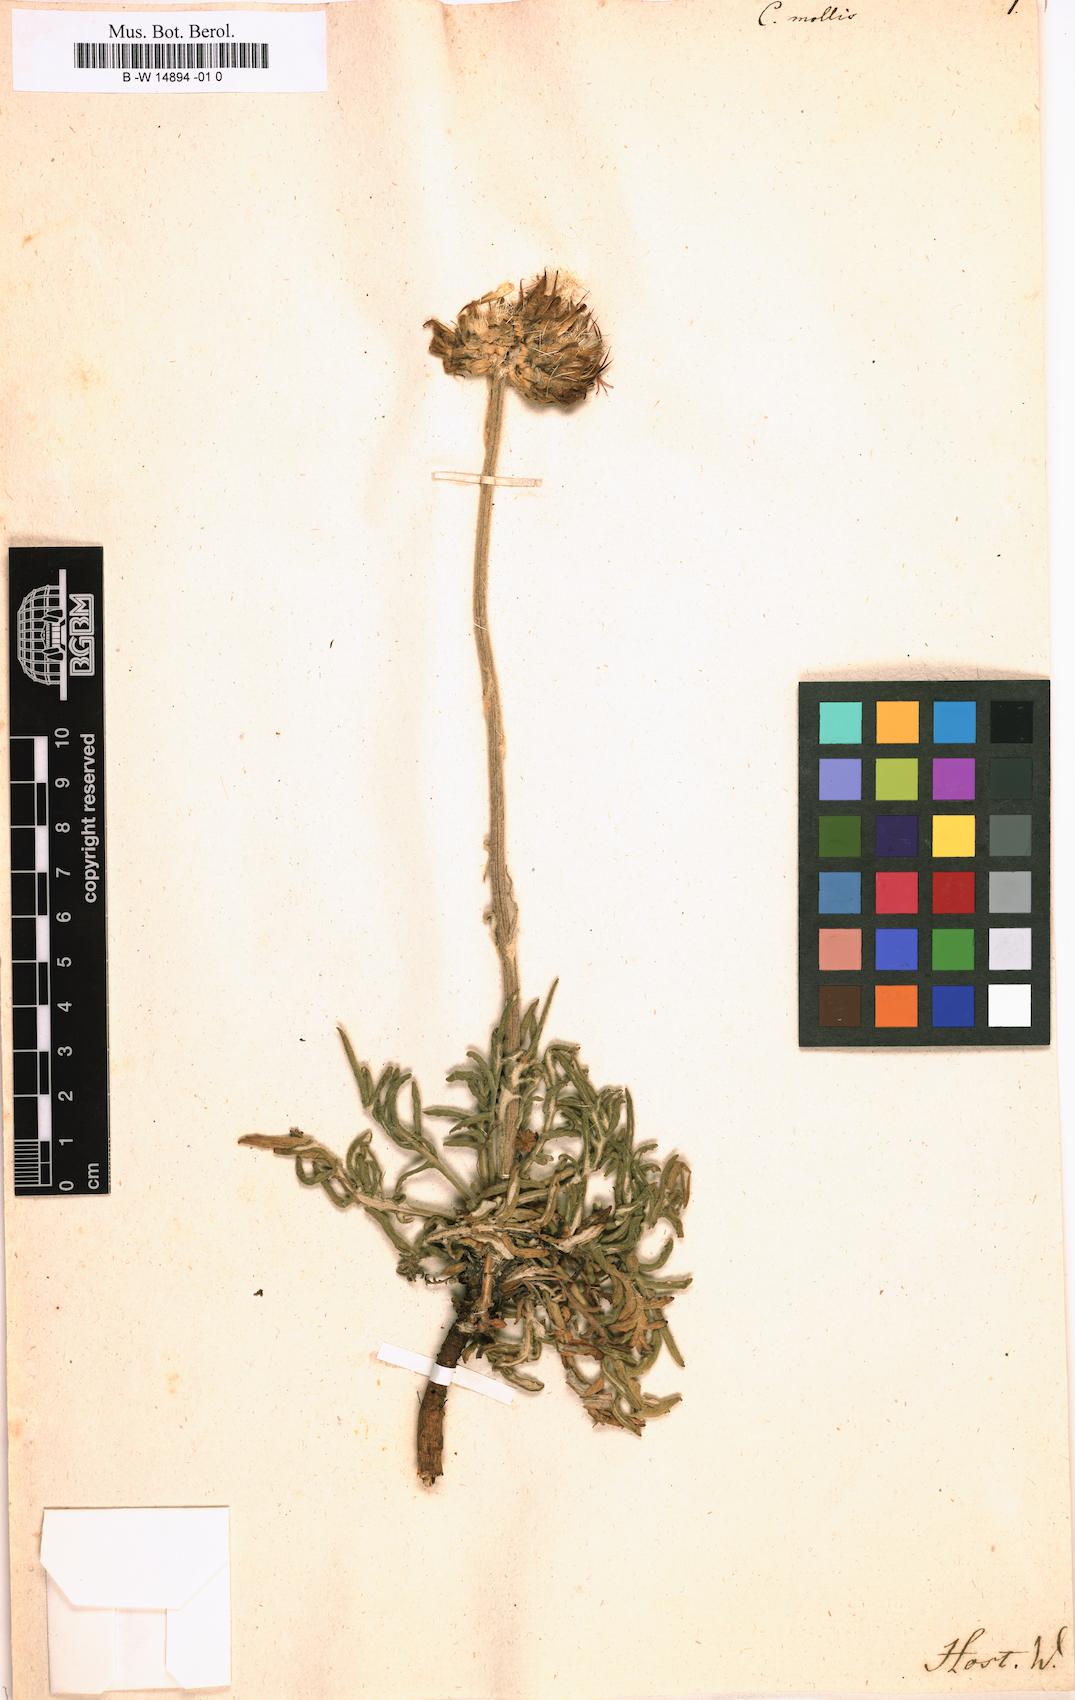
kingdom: Plantae
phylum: Tracheophyta
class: Magnoliopsida
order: Asterales
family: Asteraceae
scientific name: Asteraceae
